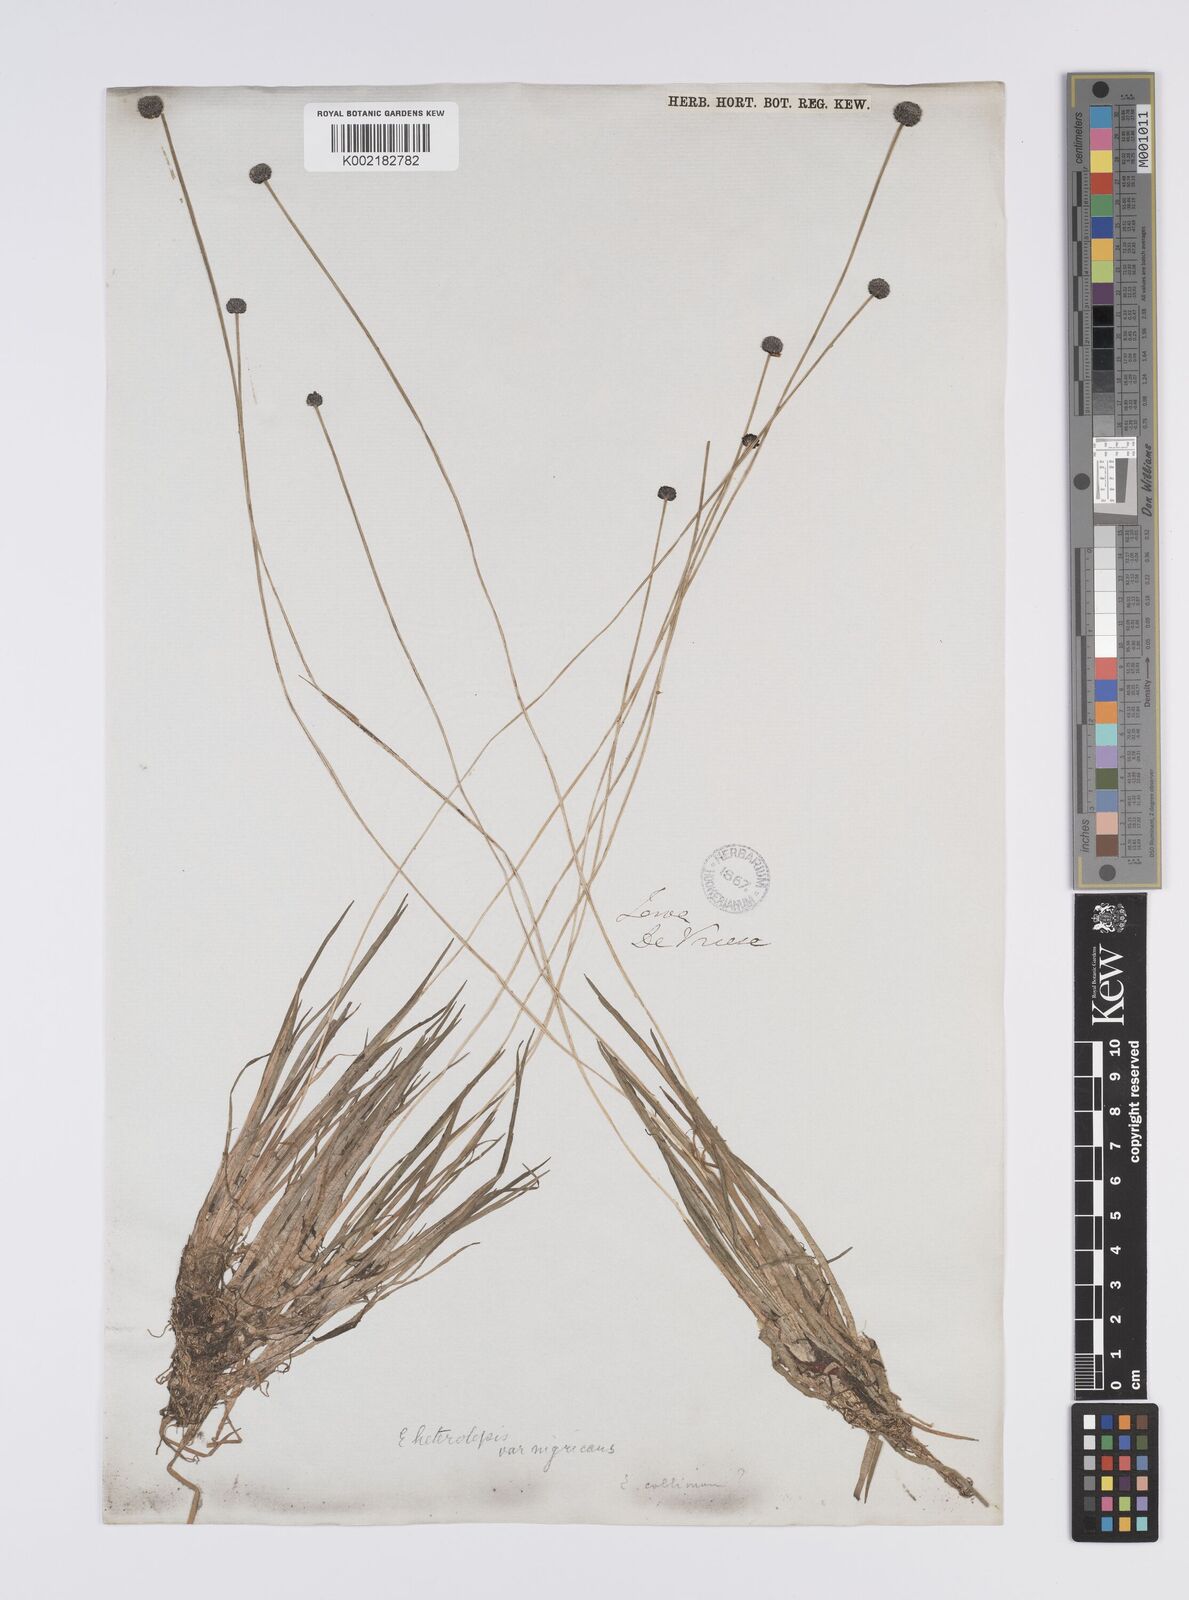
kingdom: Plantae
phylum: Tracheophyta
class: Liliopsida
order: Poales
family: Eriocaulaceae
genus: Eriocaulon
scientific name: Eriocaulon heterolepis
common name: Buttonhead pipewort
